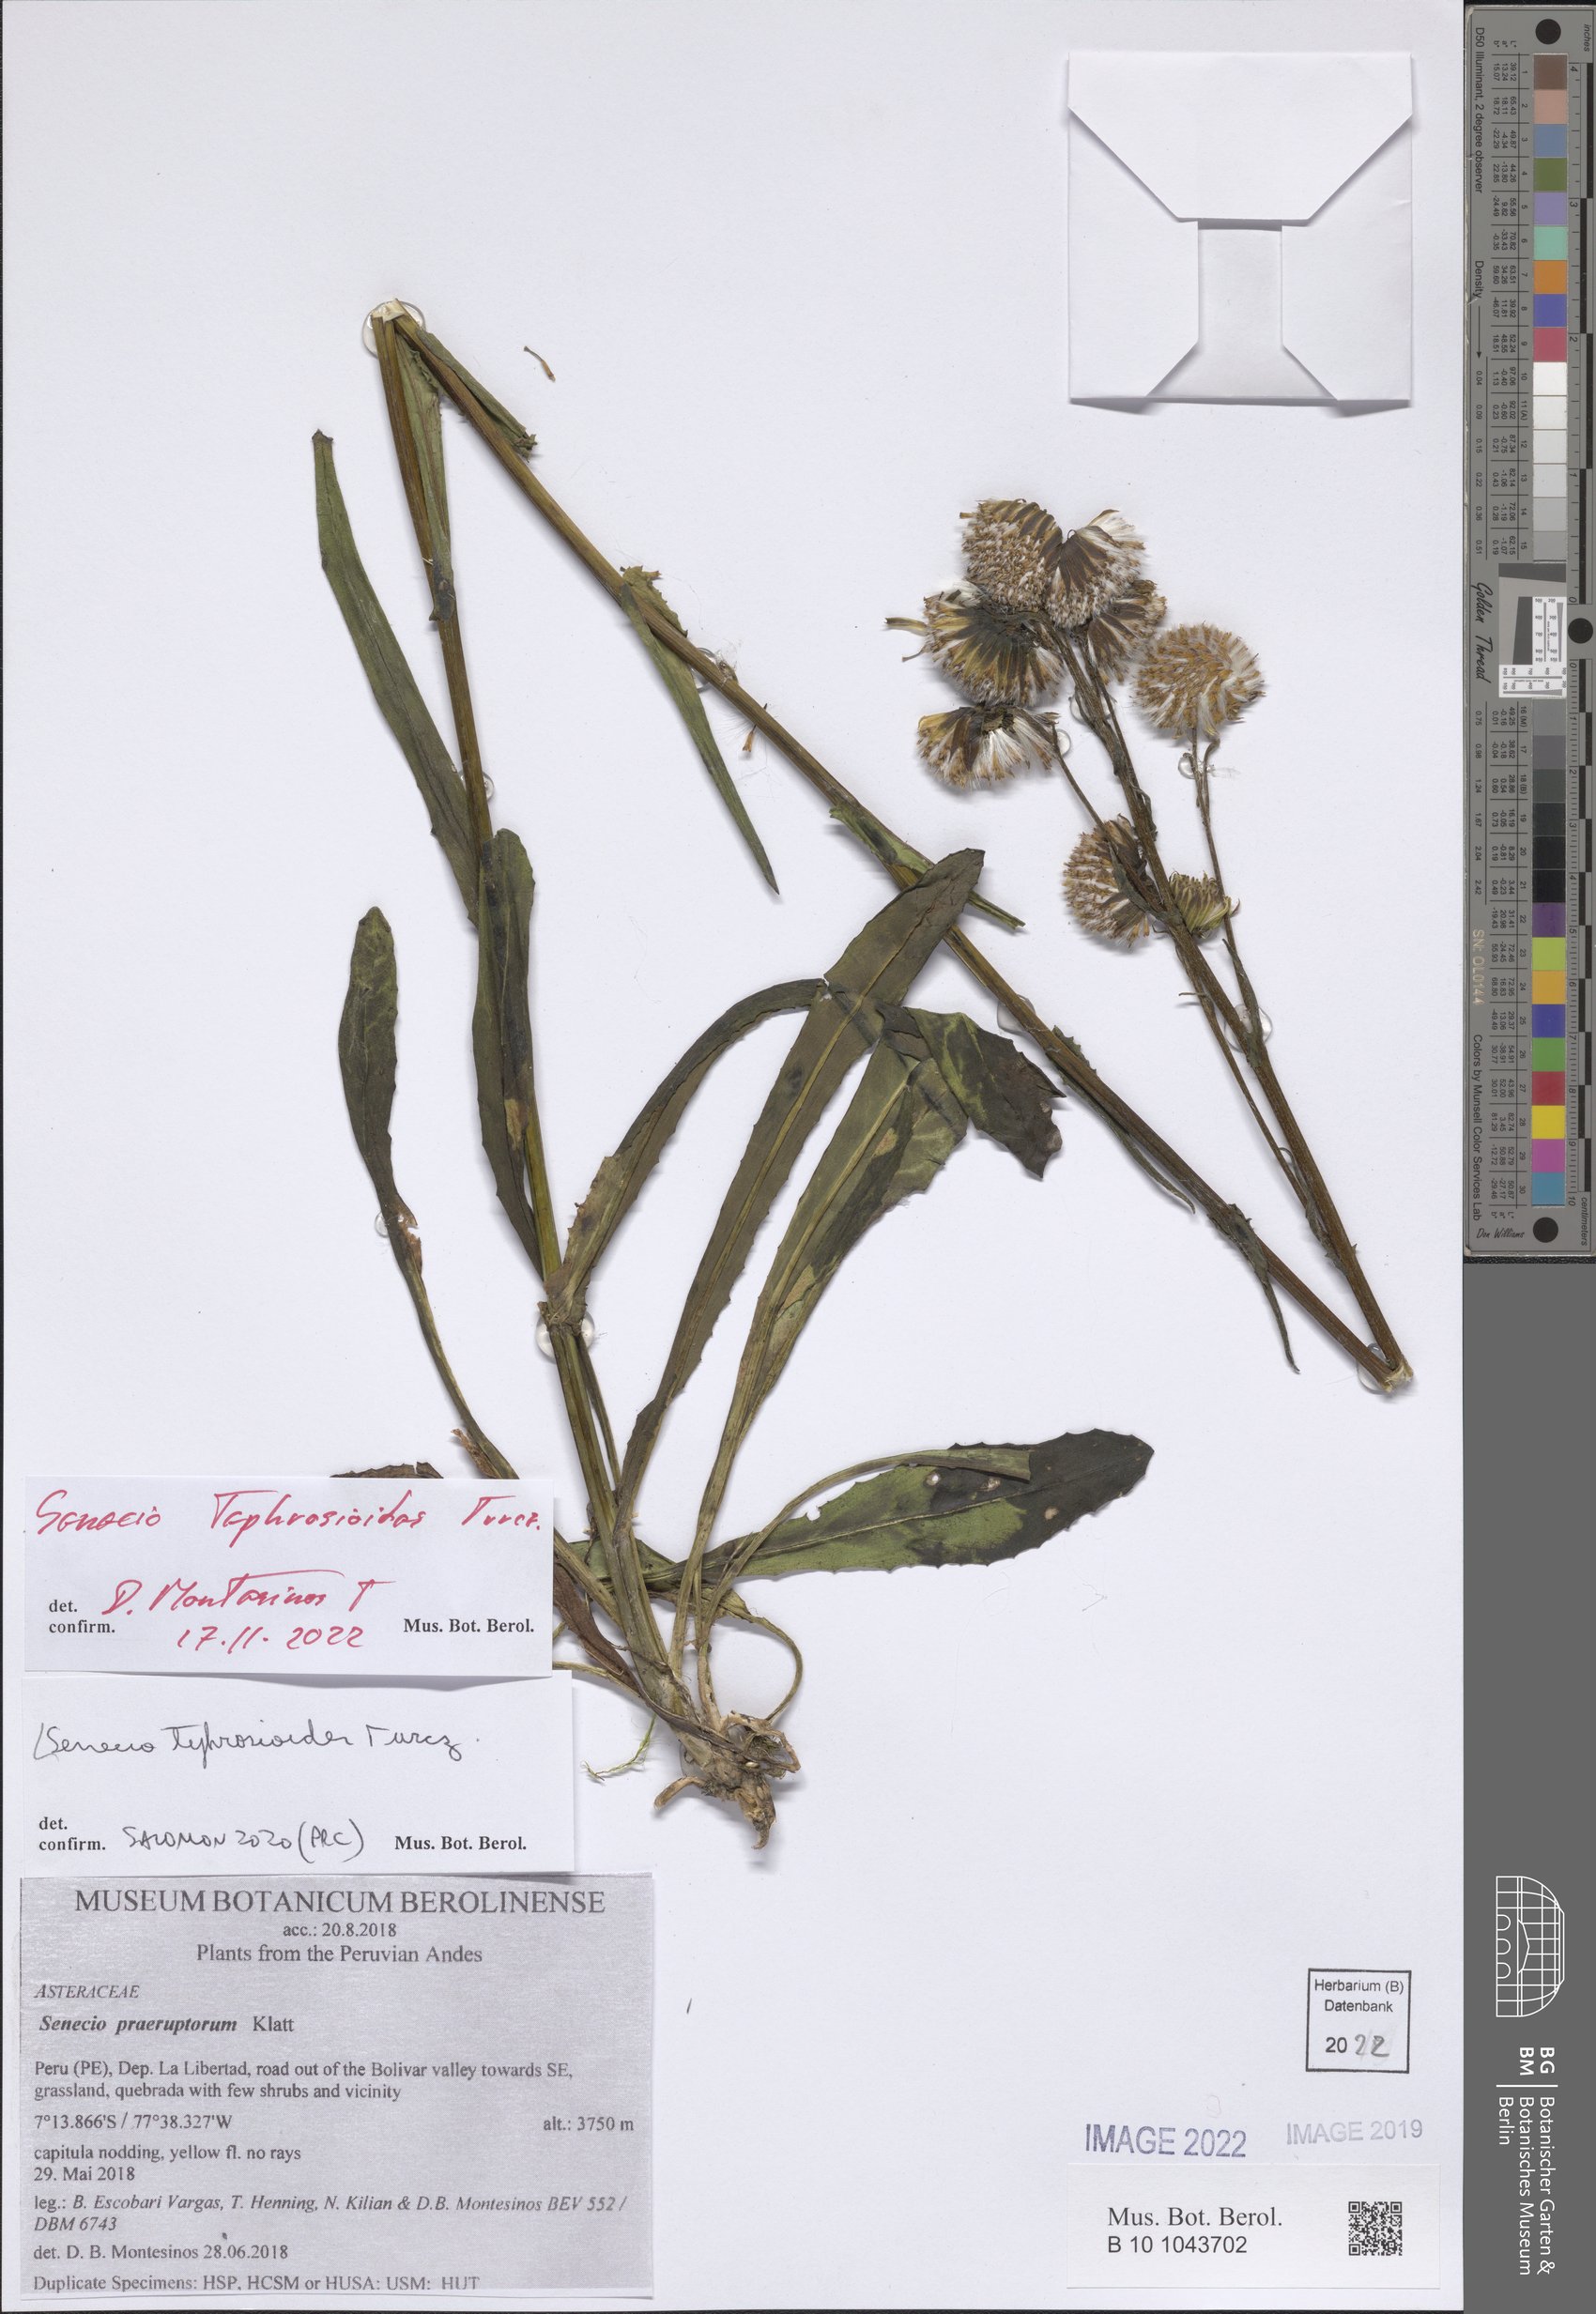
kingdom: Plantae
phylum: Tracheophyta
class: Magnoliopsida
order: Asterales
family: Asteraceae
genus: Senecio
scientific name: Senecio tephrosioides
